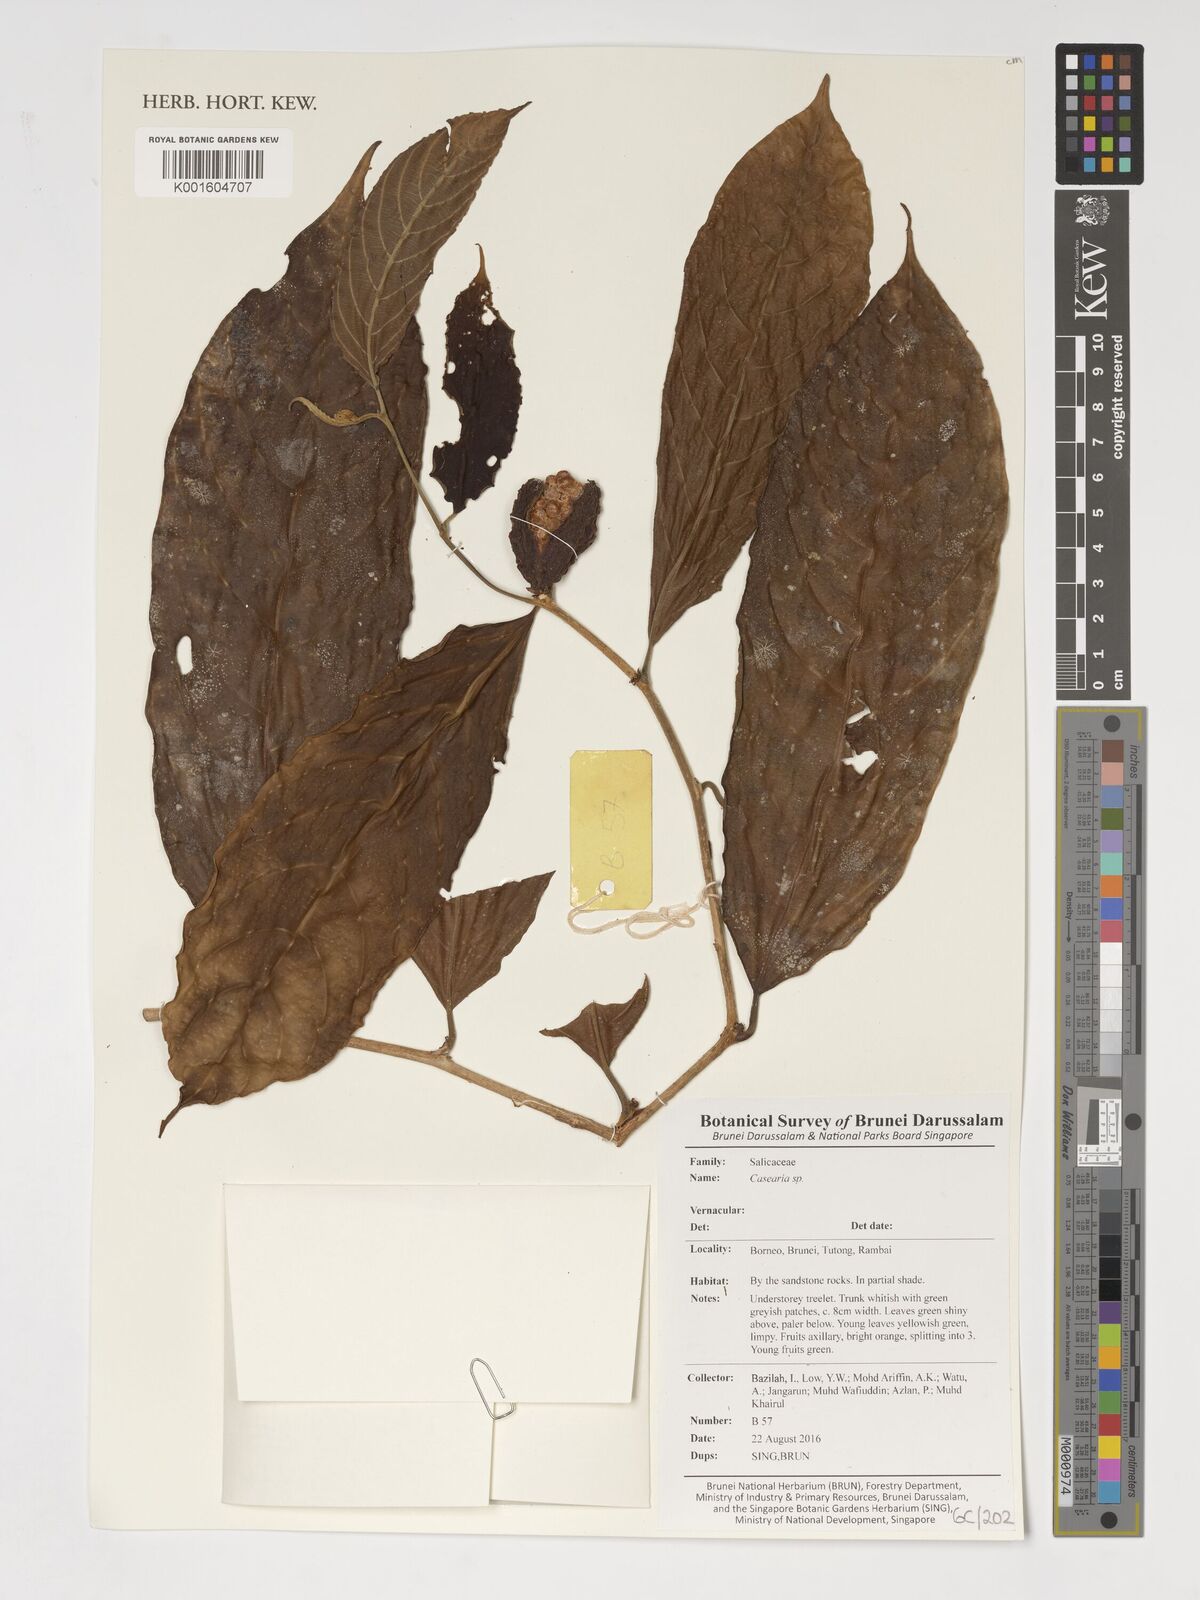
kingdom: Plantae
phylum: Tracheophyta
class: Magnoliopsida
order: Malpighiales
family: Salicaceae
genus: Casearia
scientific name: Casearia
